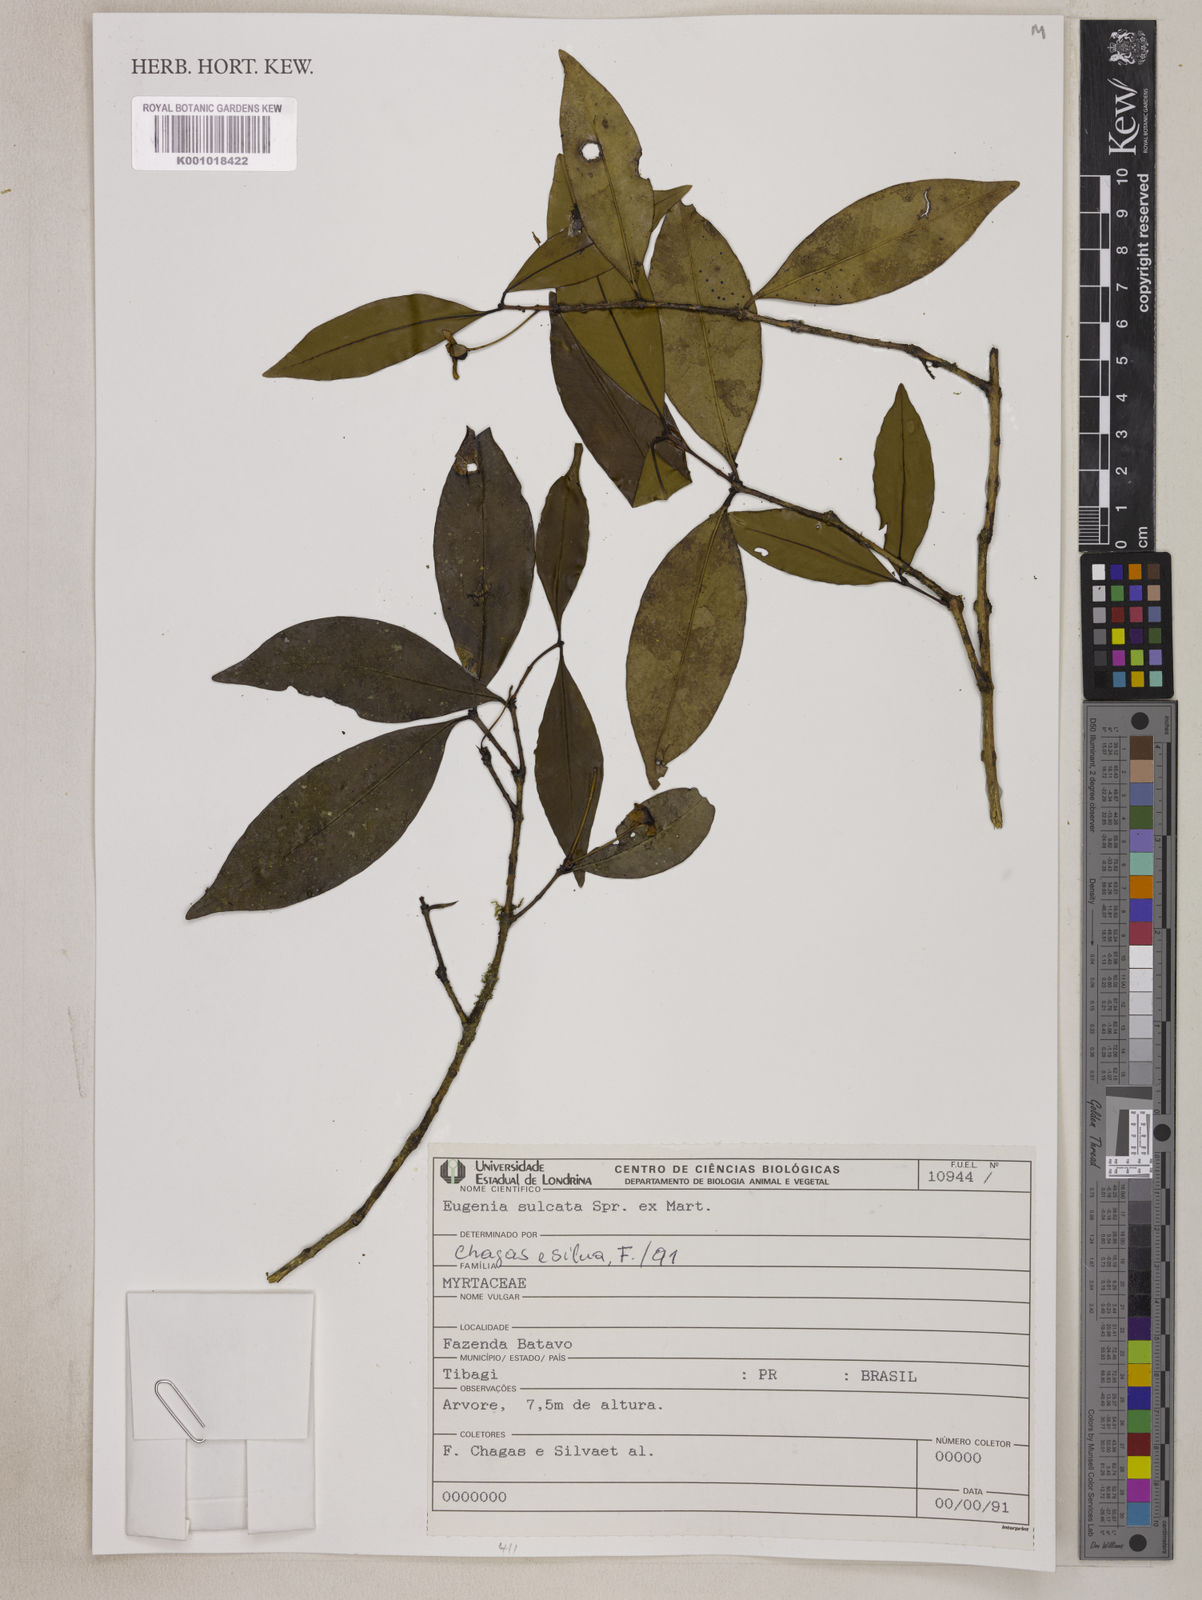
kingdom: Plantae
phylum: Tracheophyta
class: Magnoliopsida
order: Myrtales
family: Myrtaceae
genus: Eugenia
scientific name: Eugenia sulcata
